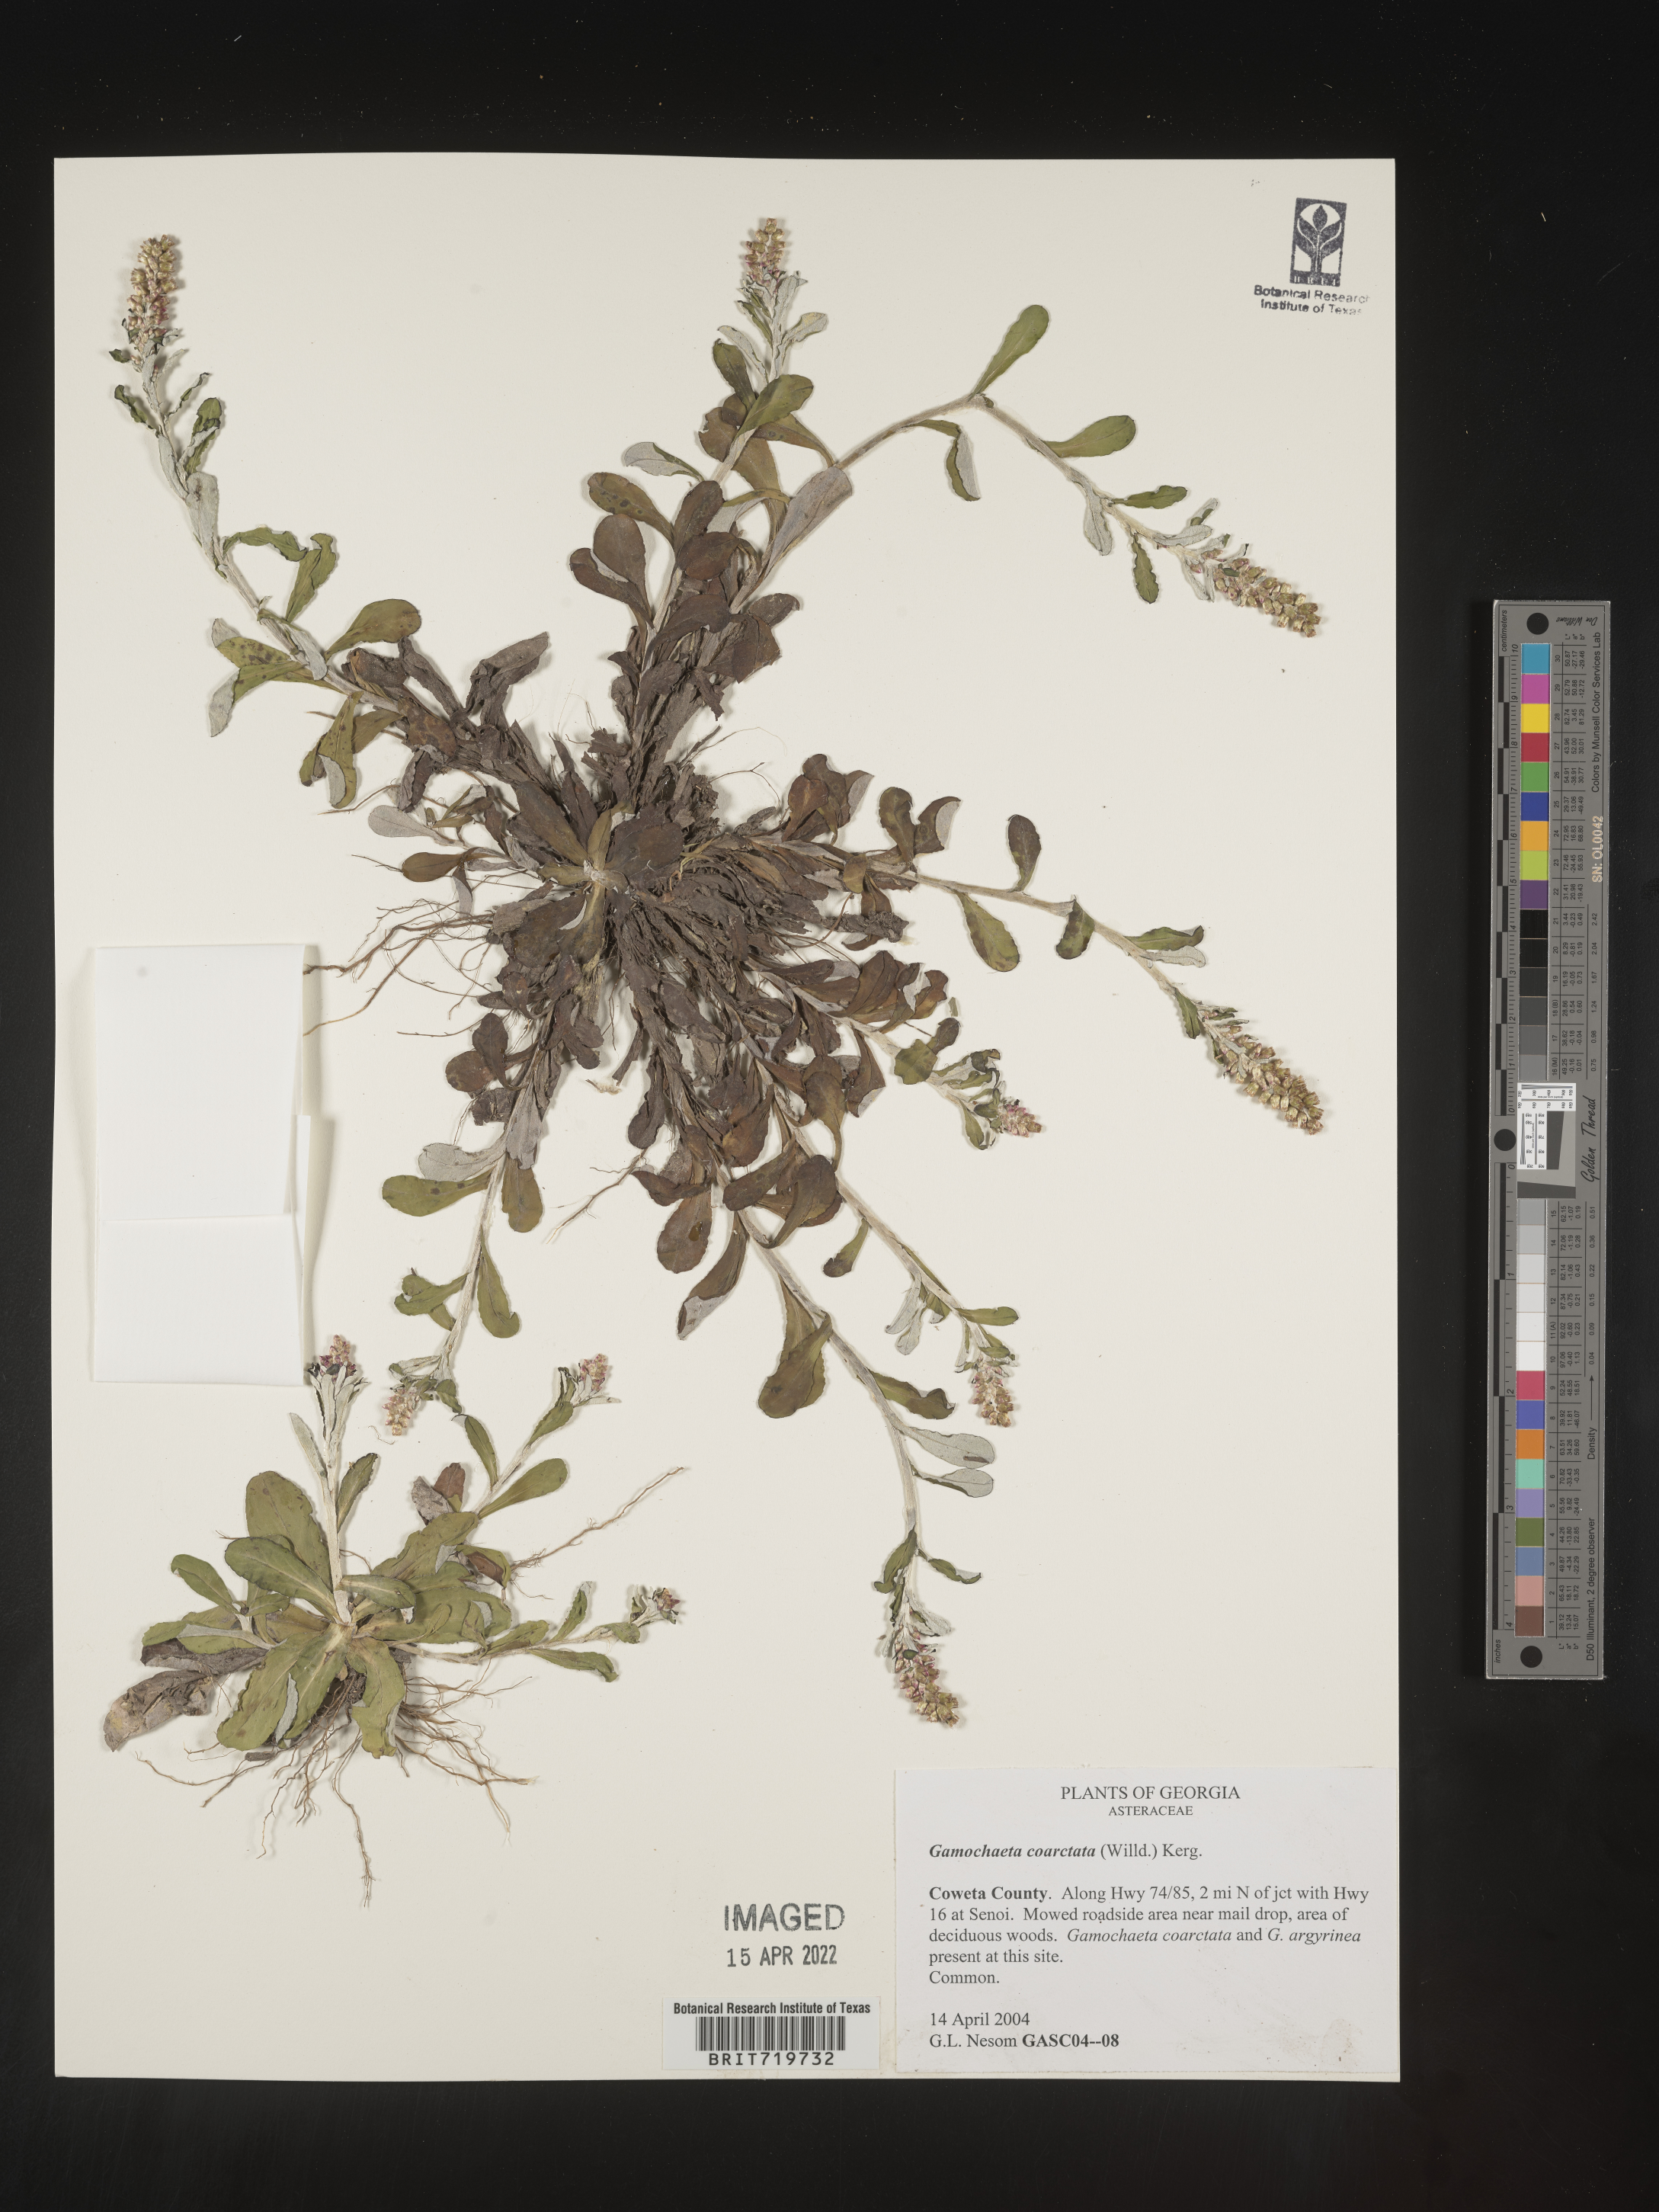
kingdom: Plantae
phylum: Tracheophyta
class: Magnoliopsida
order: Asterales
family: Asteraceae
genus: Gamochaeta
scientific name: Gamochaeta americana
